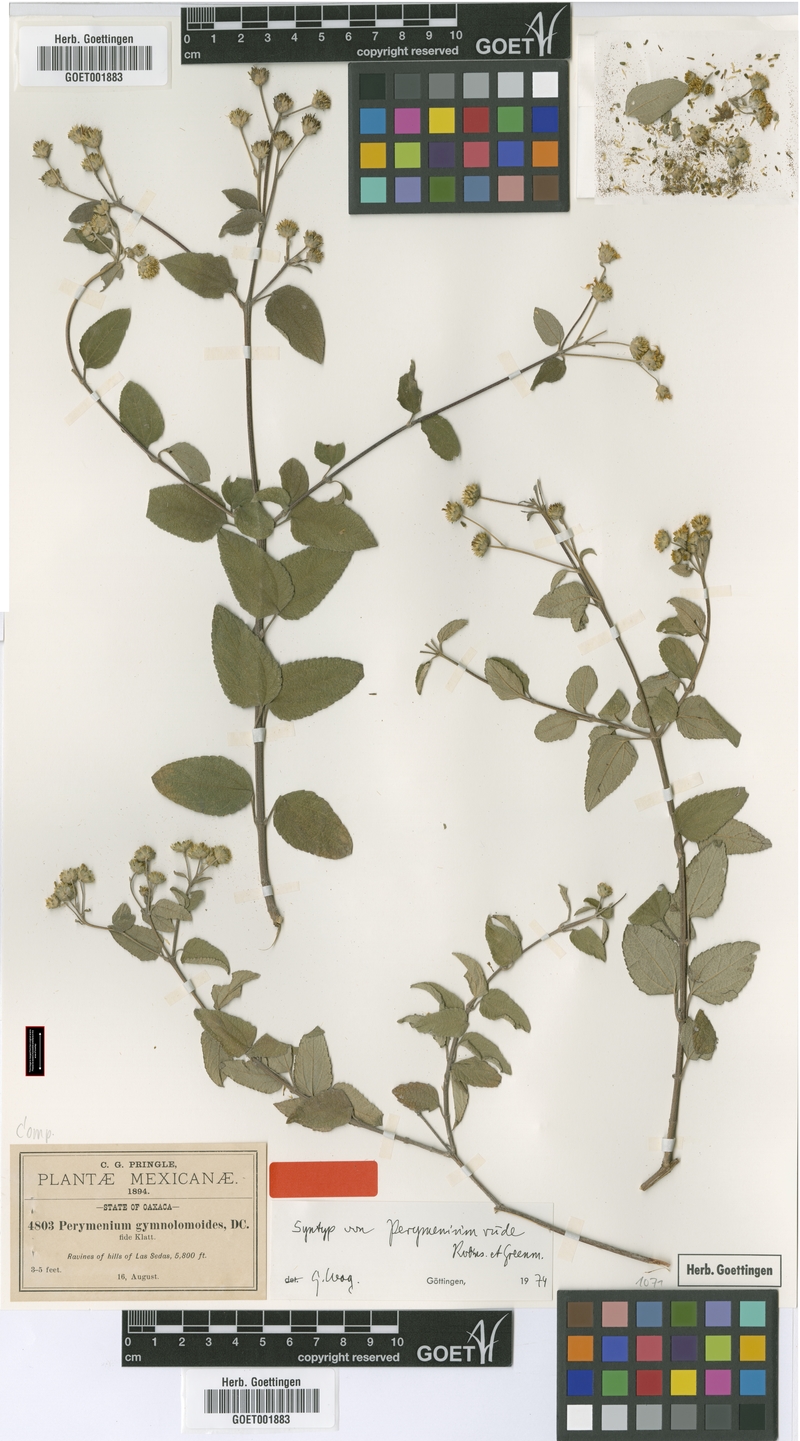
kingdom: Plantae
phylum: Tracheophyta
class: Magnoliopsida
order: Asterales
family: Asteraceae
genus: Perymenium
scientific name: Perymenium rude
